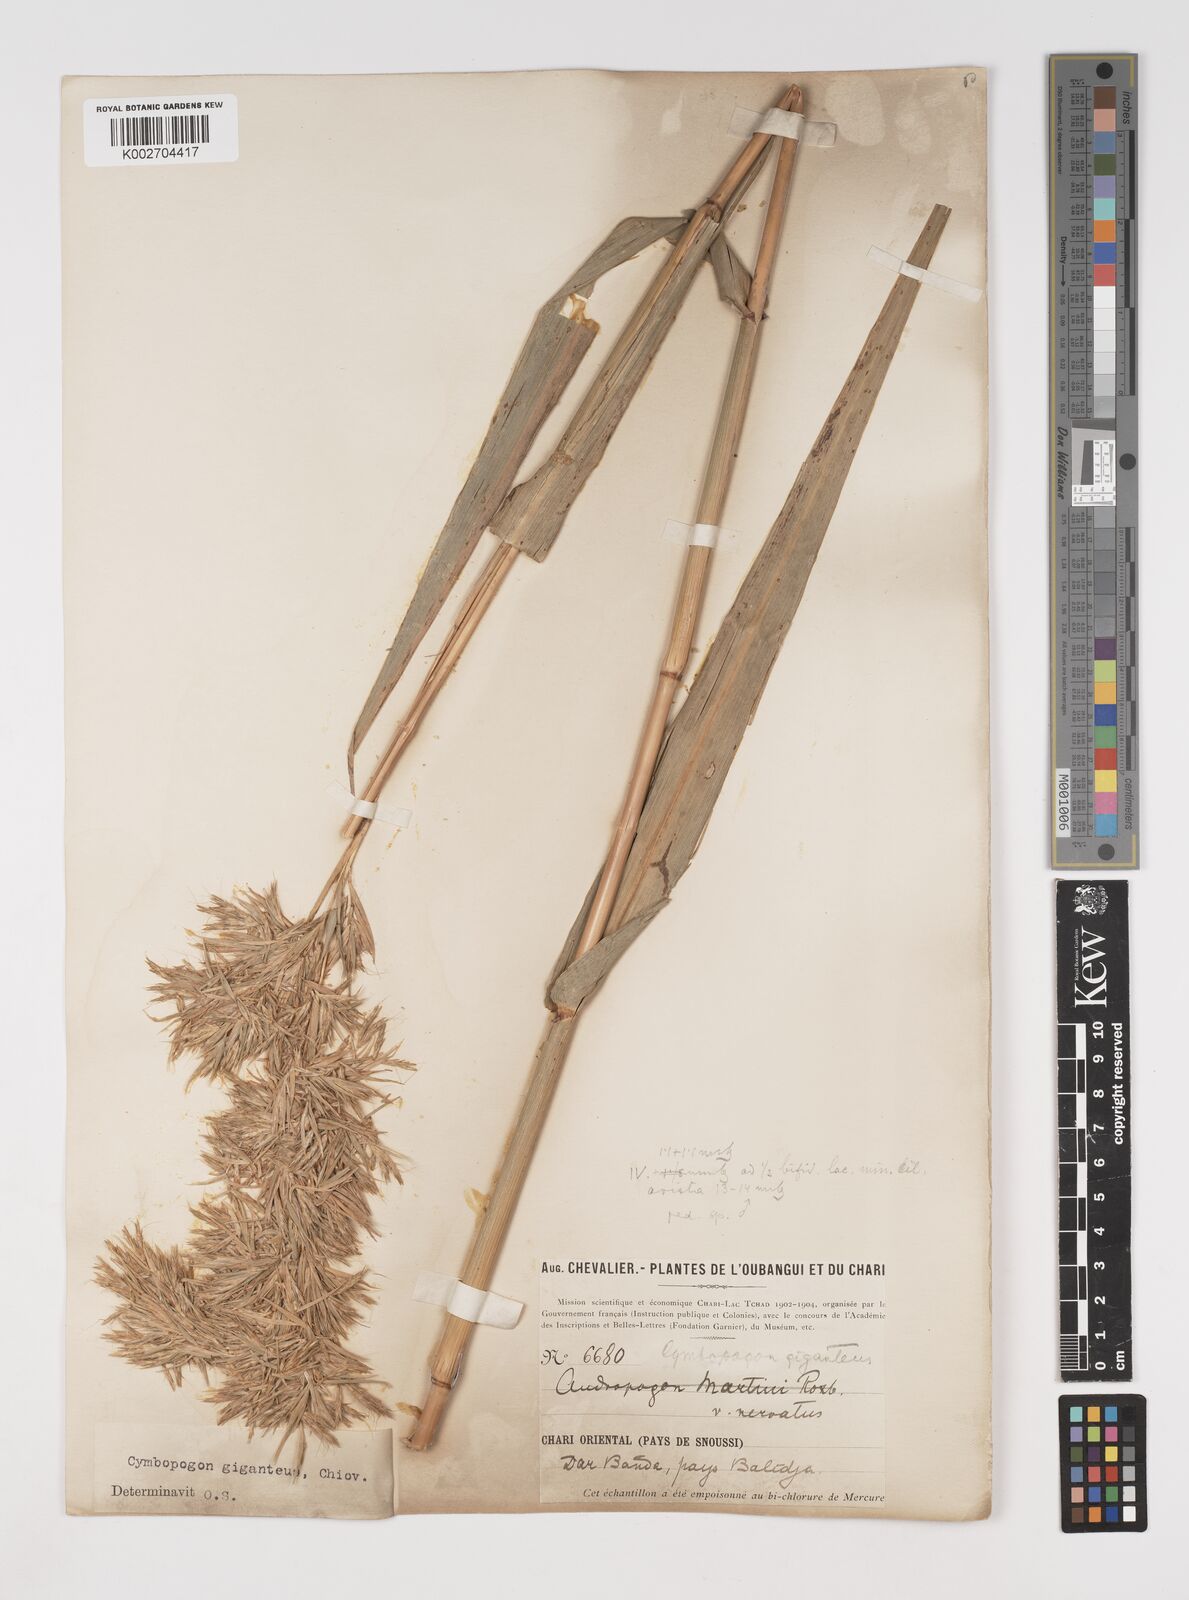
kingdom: Plantae
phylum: Tracheophyta
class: Liliopsida
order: Poales
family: Poaceae
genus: Cymbopogon
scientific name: Cymbopogon giganteus
